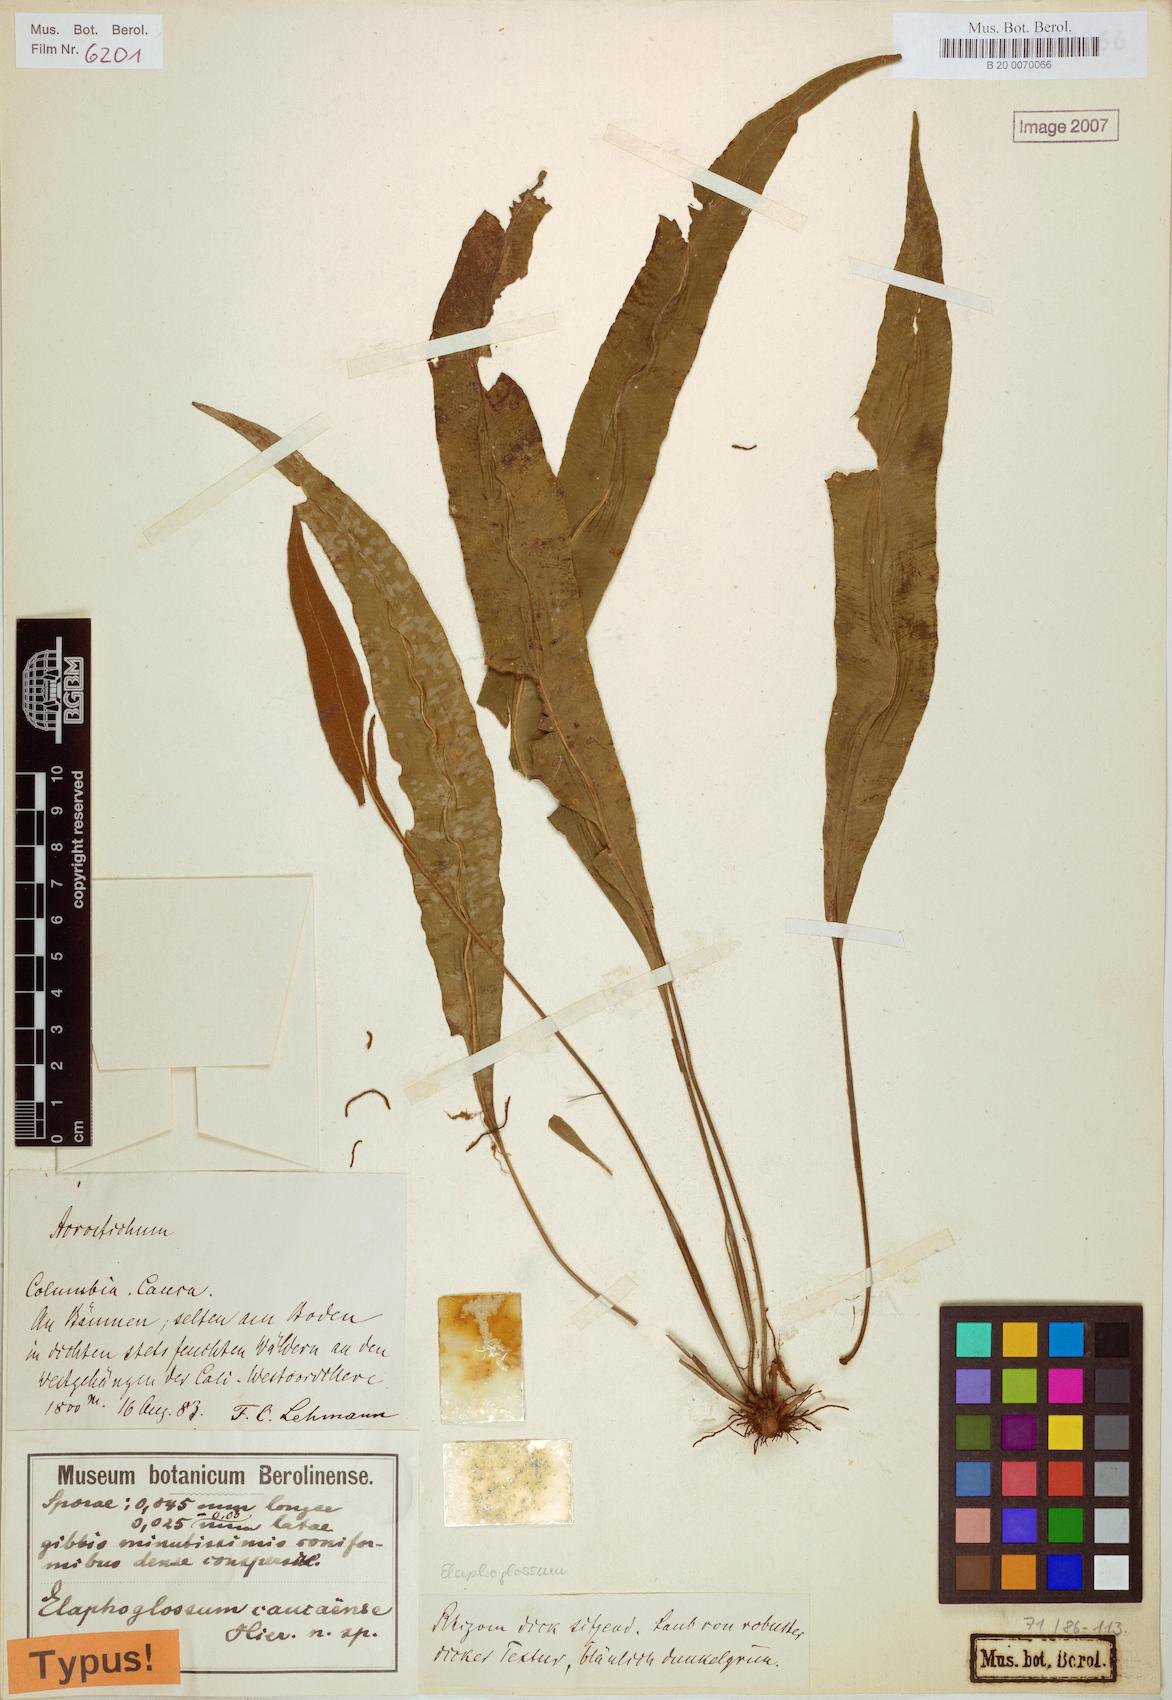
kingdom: Plantae
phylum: Tracheophyta
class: Polypodiopsida
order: Polypodiales
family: Dryopteridaceae
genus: Elaphoglossum
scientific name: Elaphoglossum
